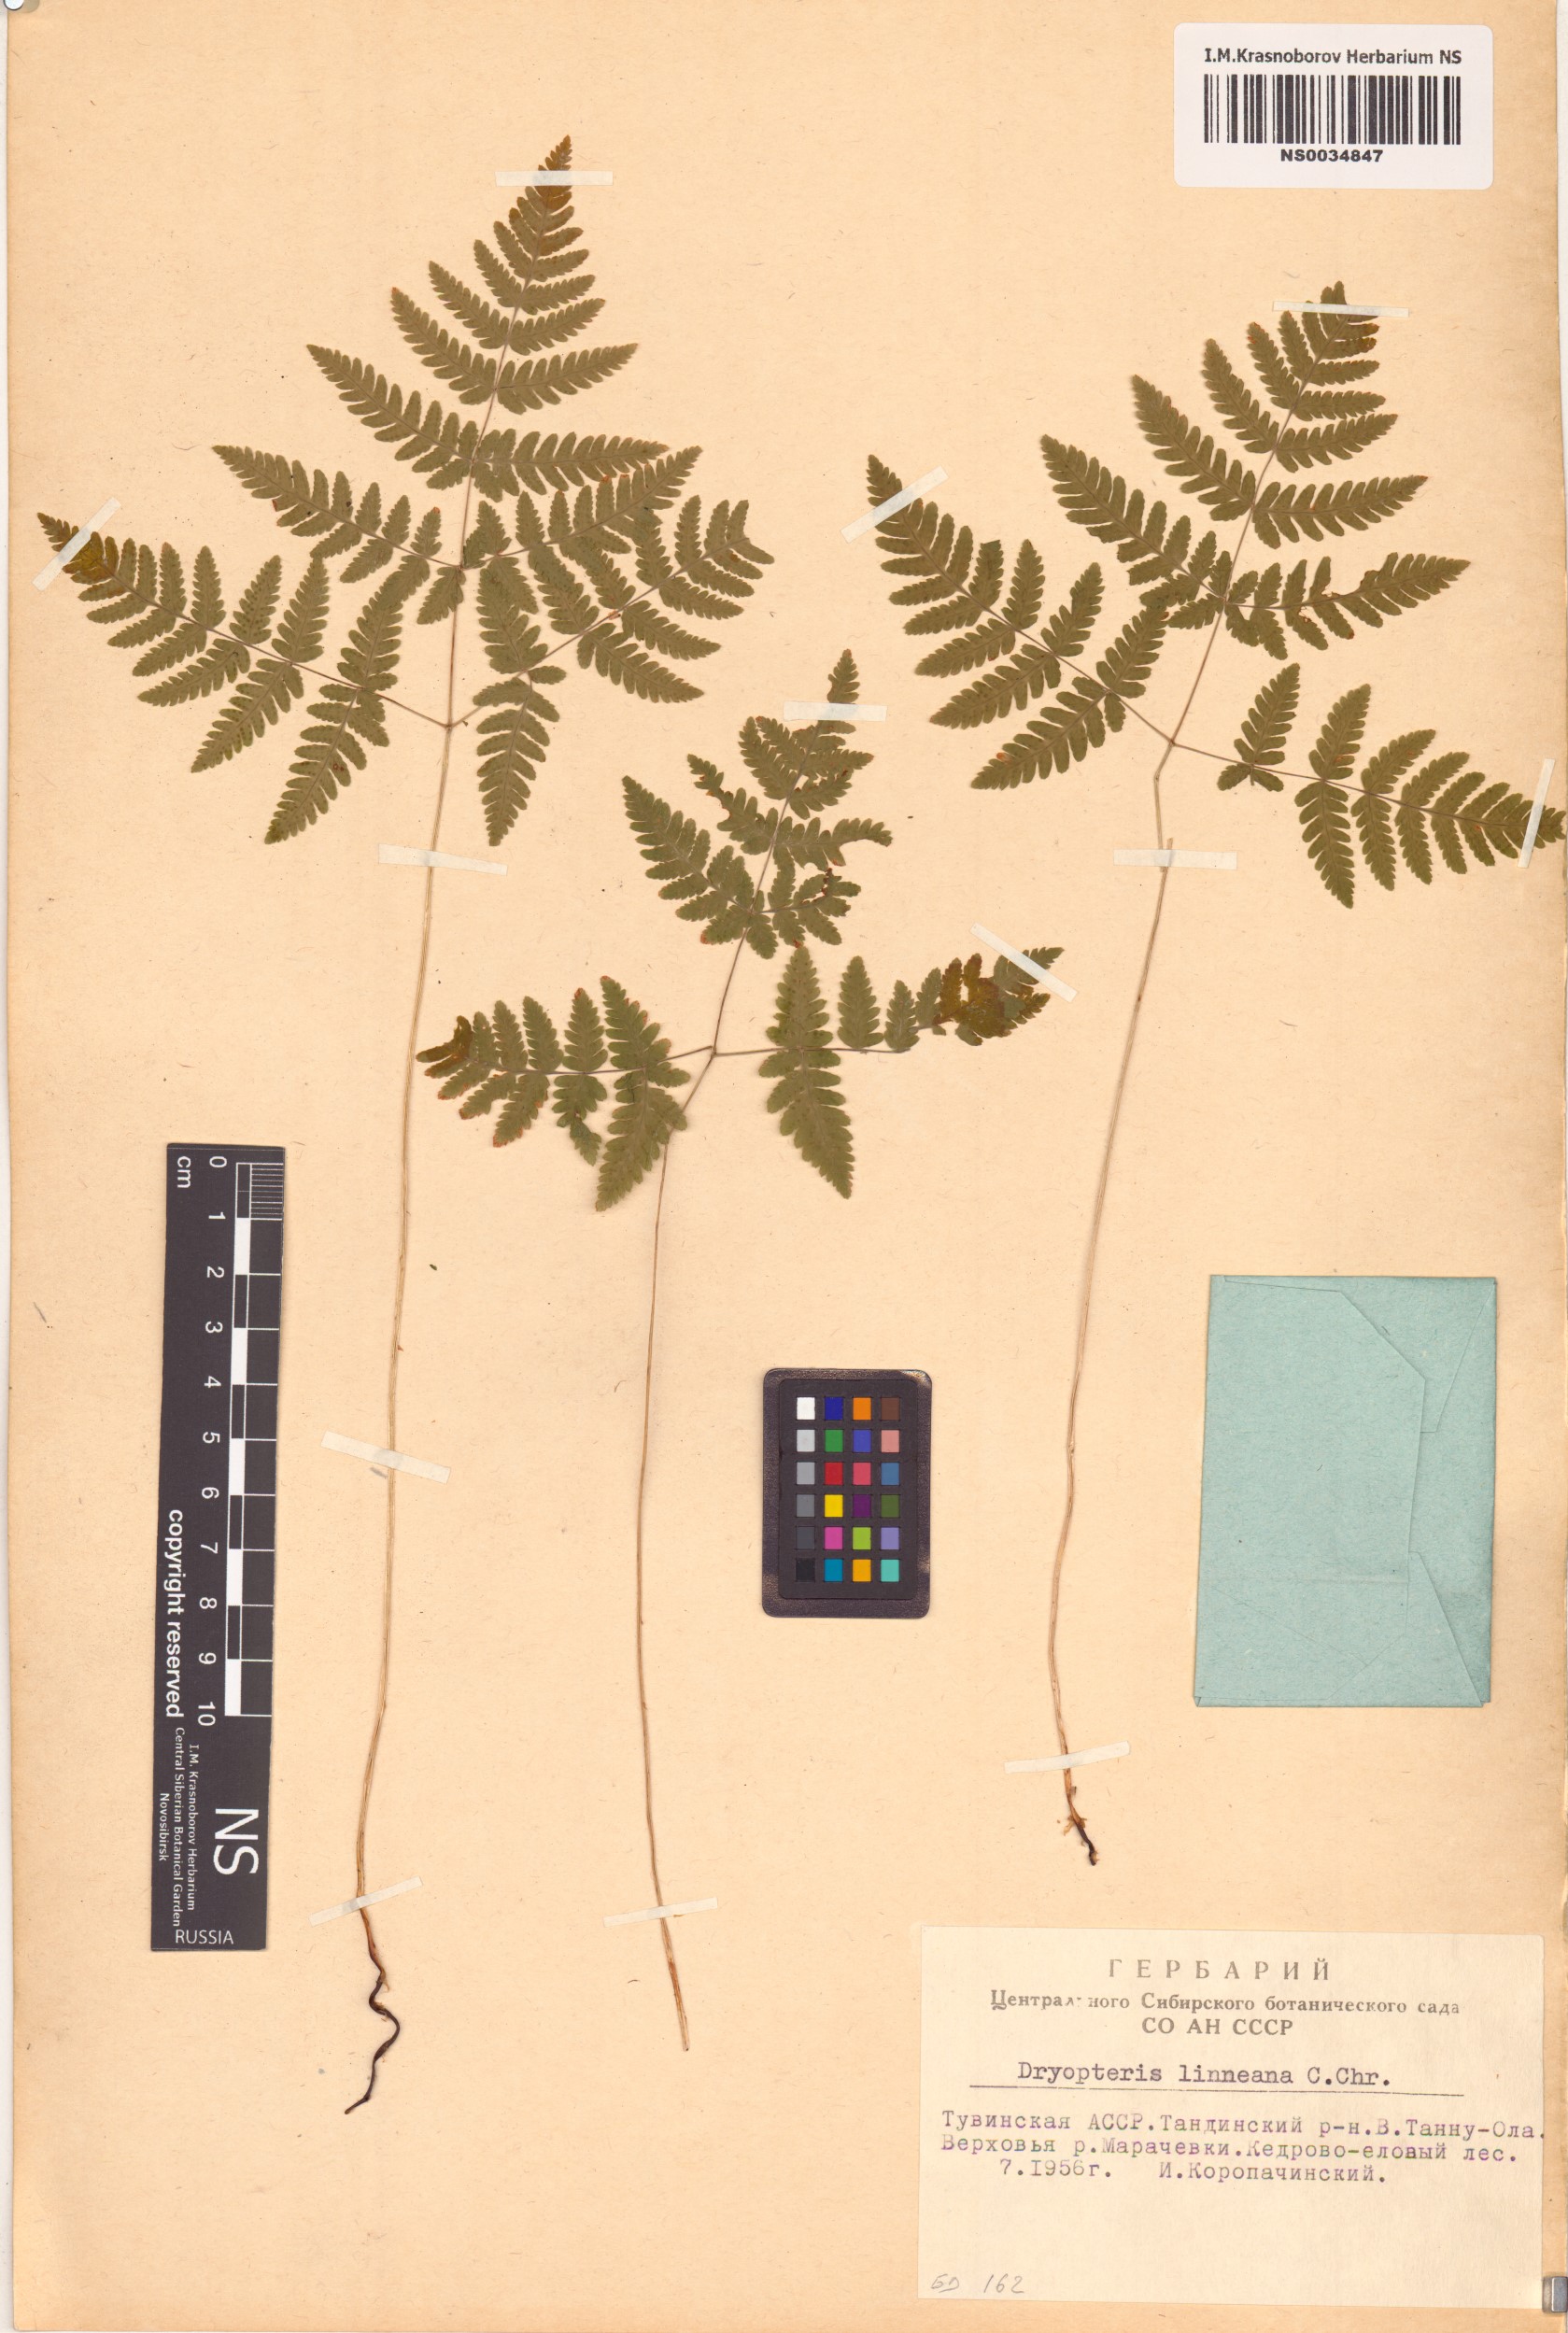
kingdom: Plantae
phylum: Tracheophyta
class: Polypodiopsida
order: Polypodiales
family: Cystopteridaceae
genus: Gymnocarpium
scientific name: Gymnocarpium dryopteris
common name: Oak fern
